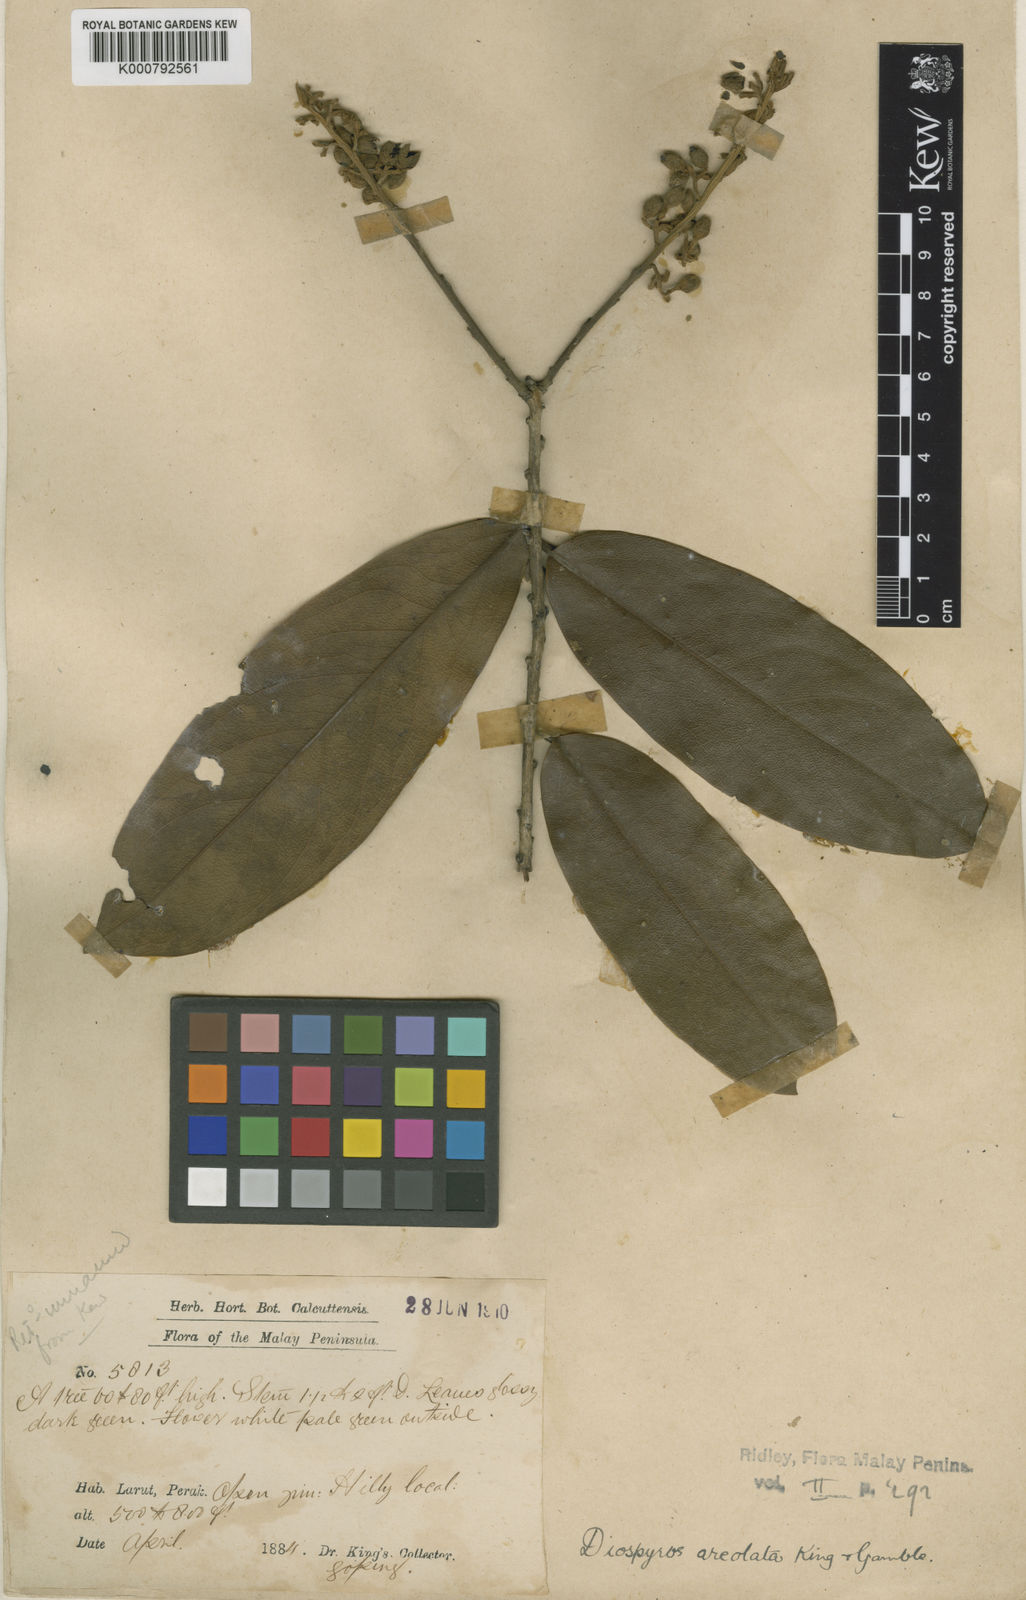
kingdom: Plantae
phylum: Tracheophyta
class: Magnoliopsida
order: Ericales
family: Ebenaceae
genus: Diospyros
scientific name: Diospyros areolata
